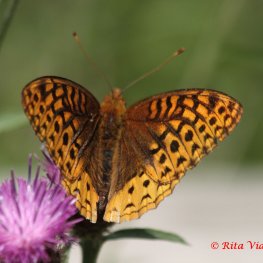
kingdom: Animalia
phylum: Arthropoda
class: Insecta
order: Lepidoptera
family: Nymphalidae
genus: Speyeria
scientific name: Speyeria cybele
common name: Great Spangled Fritillary
